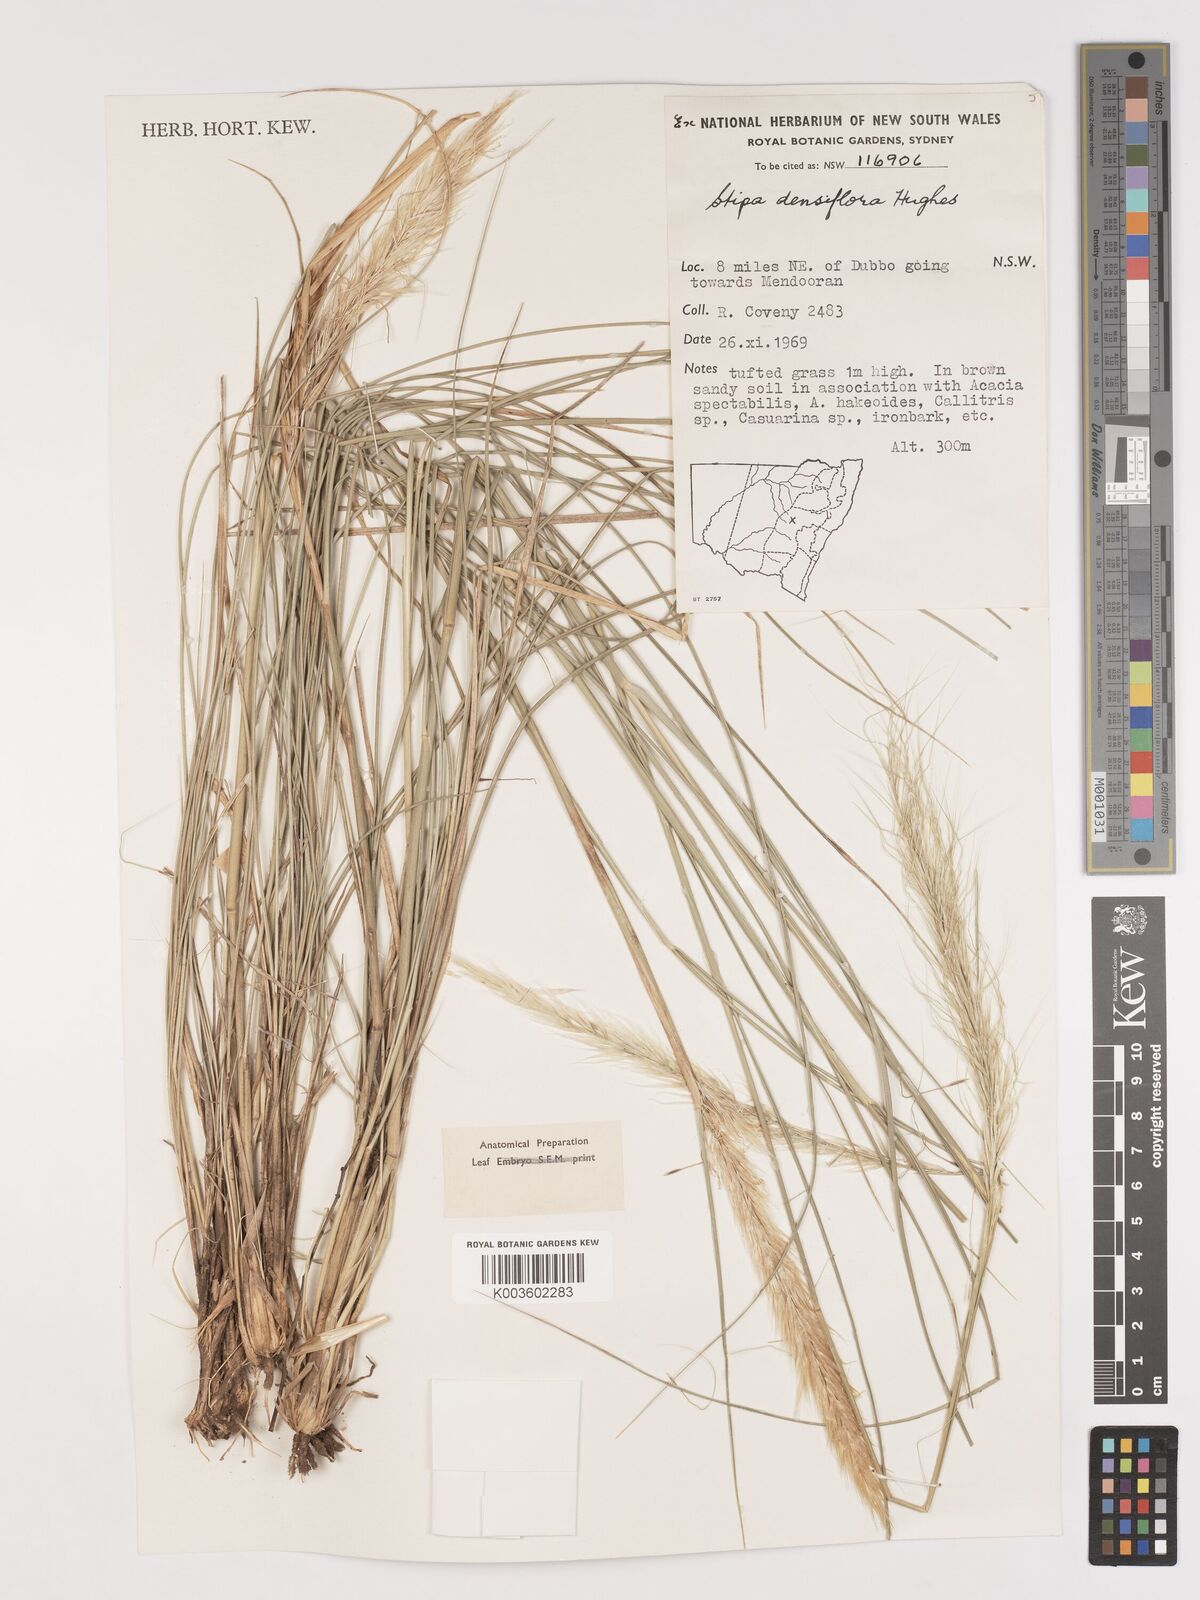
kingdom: Plantae
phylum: Tracheophyta
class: Liliopsida
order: Poales
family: Poaceae
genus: Stipa
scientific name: Stipa
